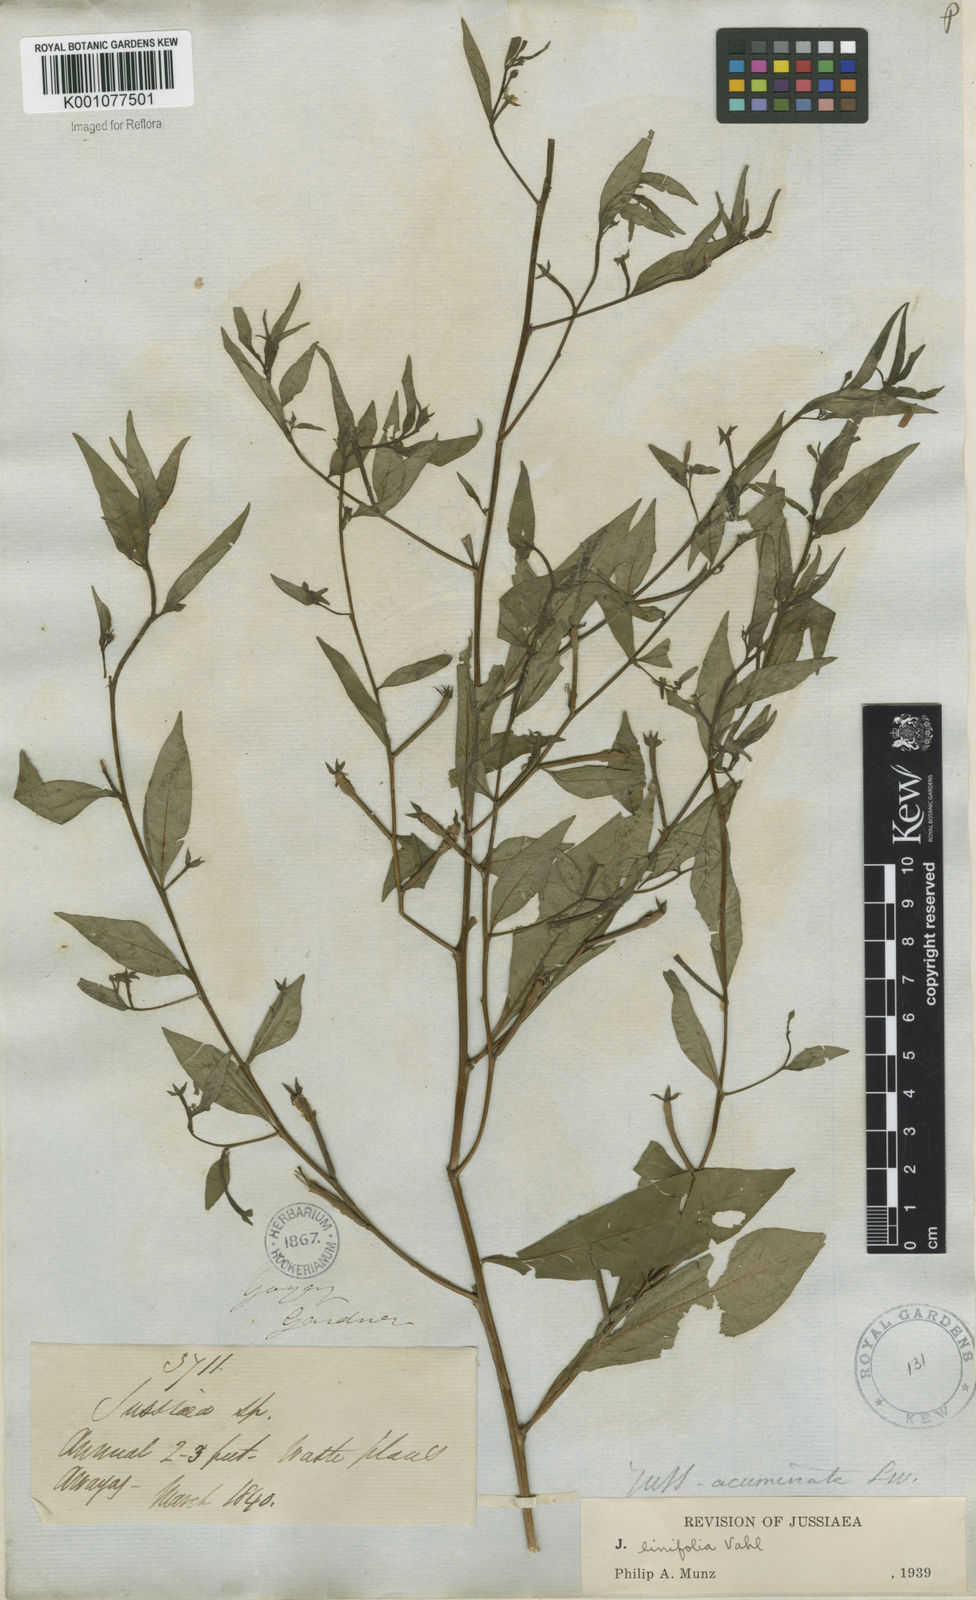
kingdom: Plantae
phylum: Tracheophyta
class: Magnoliopsida
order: Myrtales
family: Onagraceae
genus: Ludwigia
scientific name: Ludwigia hyssopifolia
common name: Linear leaf water primrose
